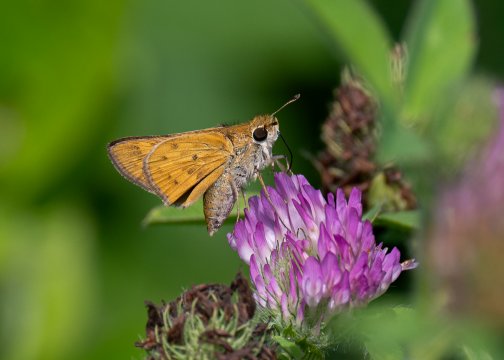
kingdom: Animalia
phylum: Arthropoda
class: Insecta
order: Lepidoptera
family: Hesperiidae
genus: Hylephila
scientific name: Hylephila phyleus
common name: Fiery Skipper
